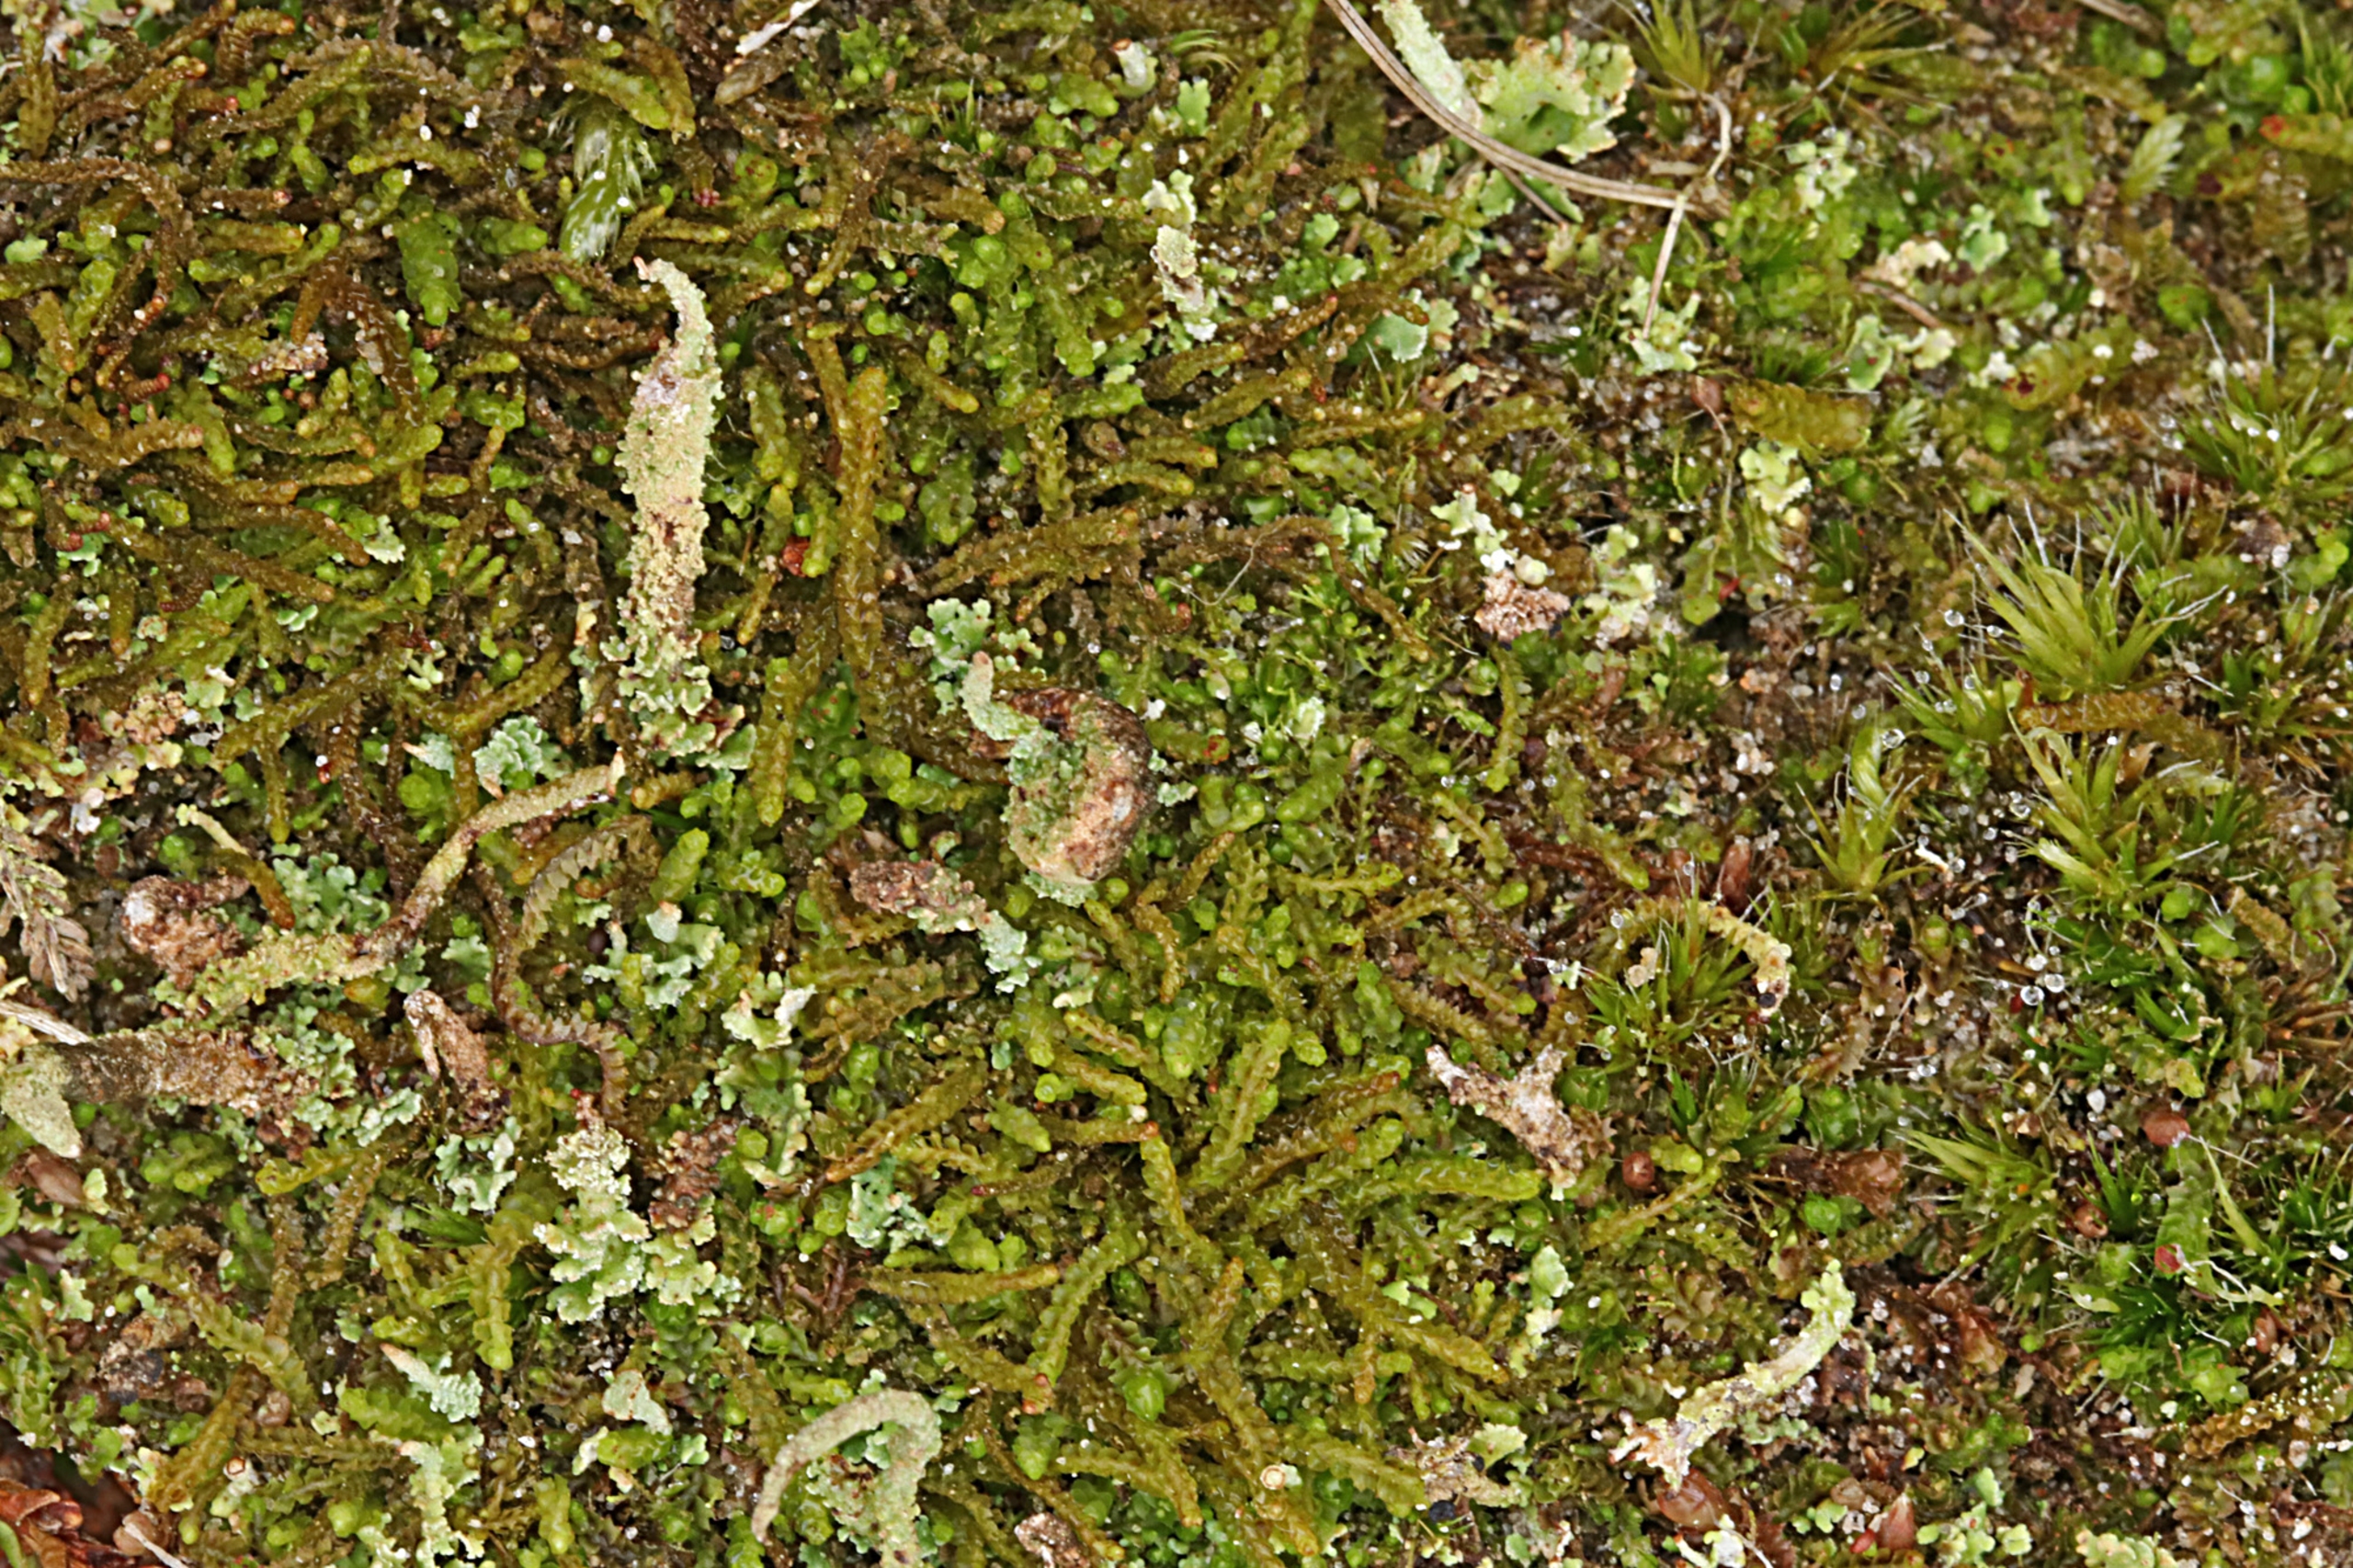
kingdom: Plantae
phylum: Marchantiophyta
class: Jungermanniopsida
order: Jungermanniales
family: Anastrophyllaceae
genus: Barbilophozia
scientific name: Barbilophozia hatcheri
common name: Spidsfliget flerfligmos
